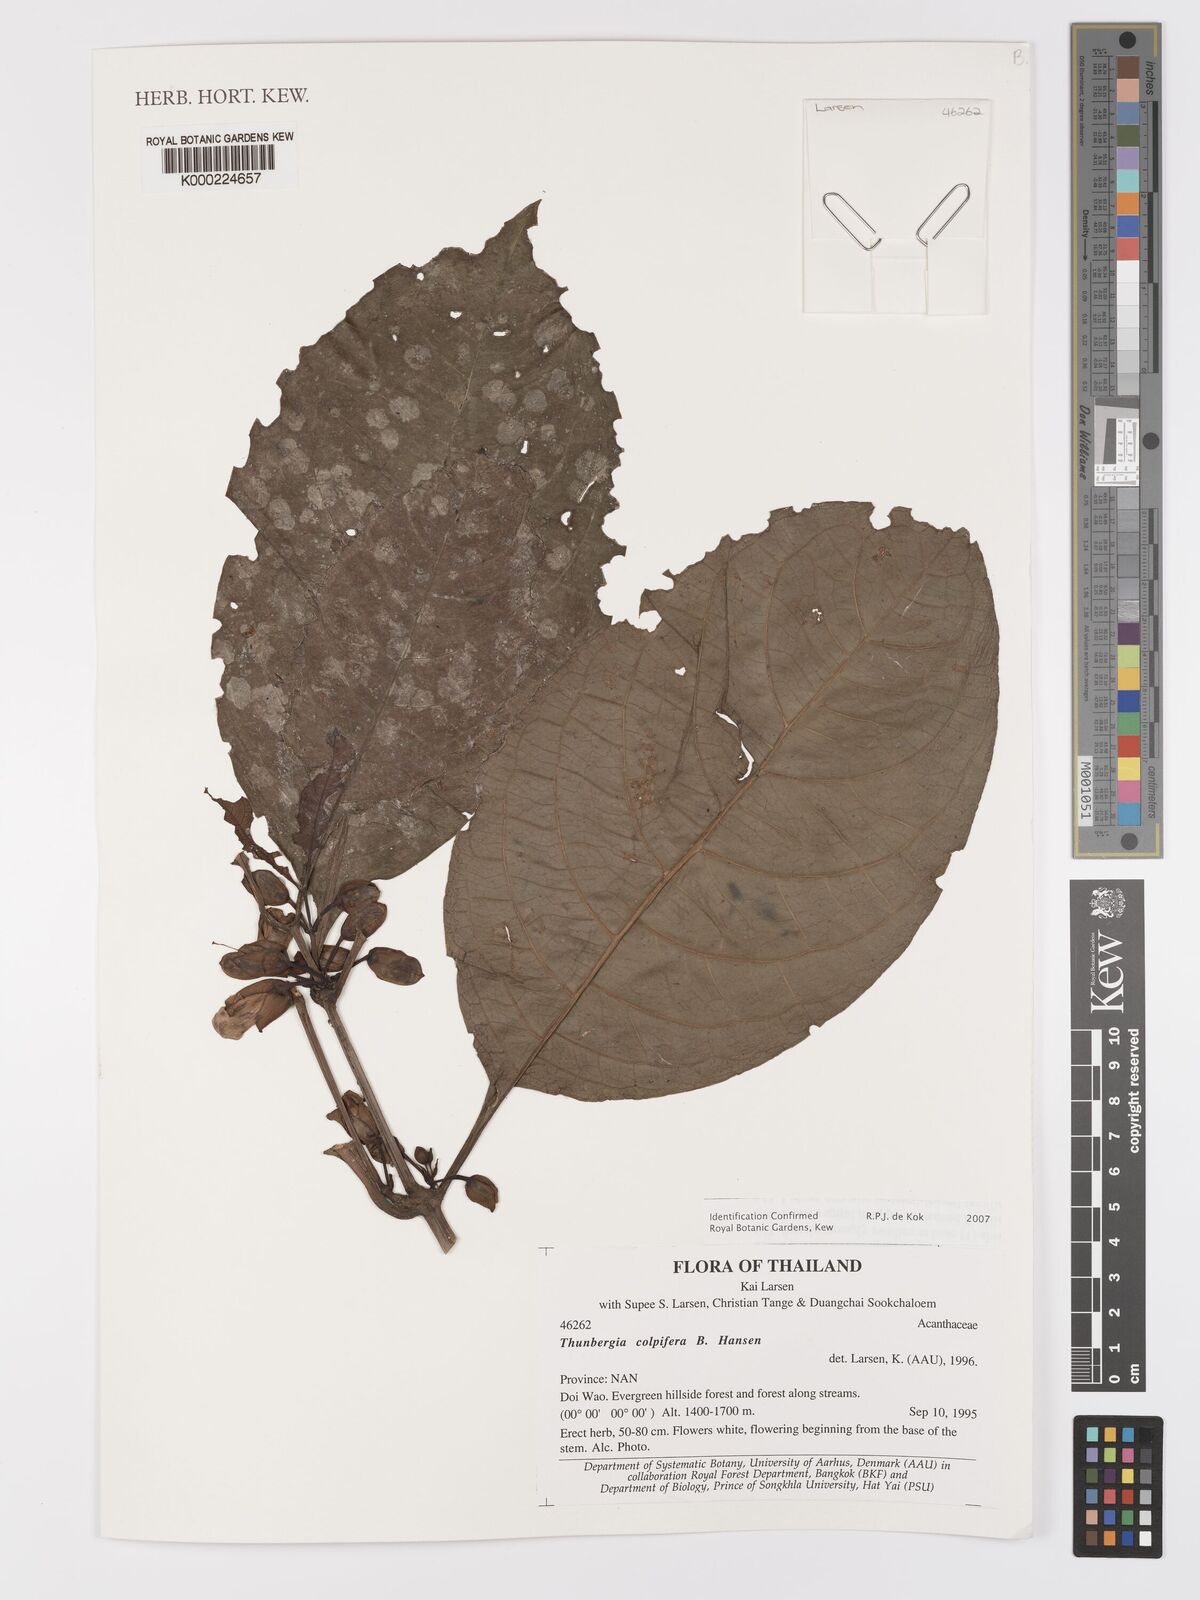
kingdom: Plantae
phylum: Tracheophyta
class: Magnoliopsida
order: Lamiales
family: Acanthaceae
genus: Thunbergia
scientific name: Thunbergia colpifera
